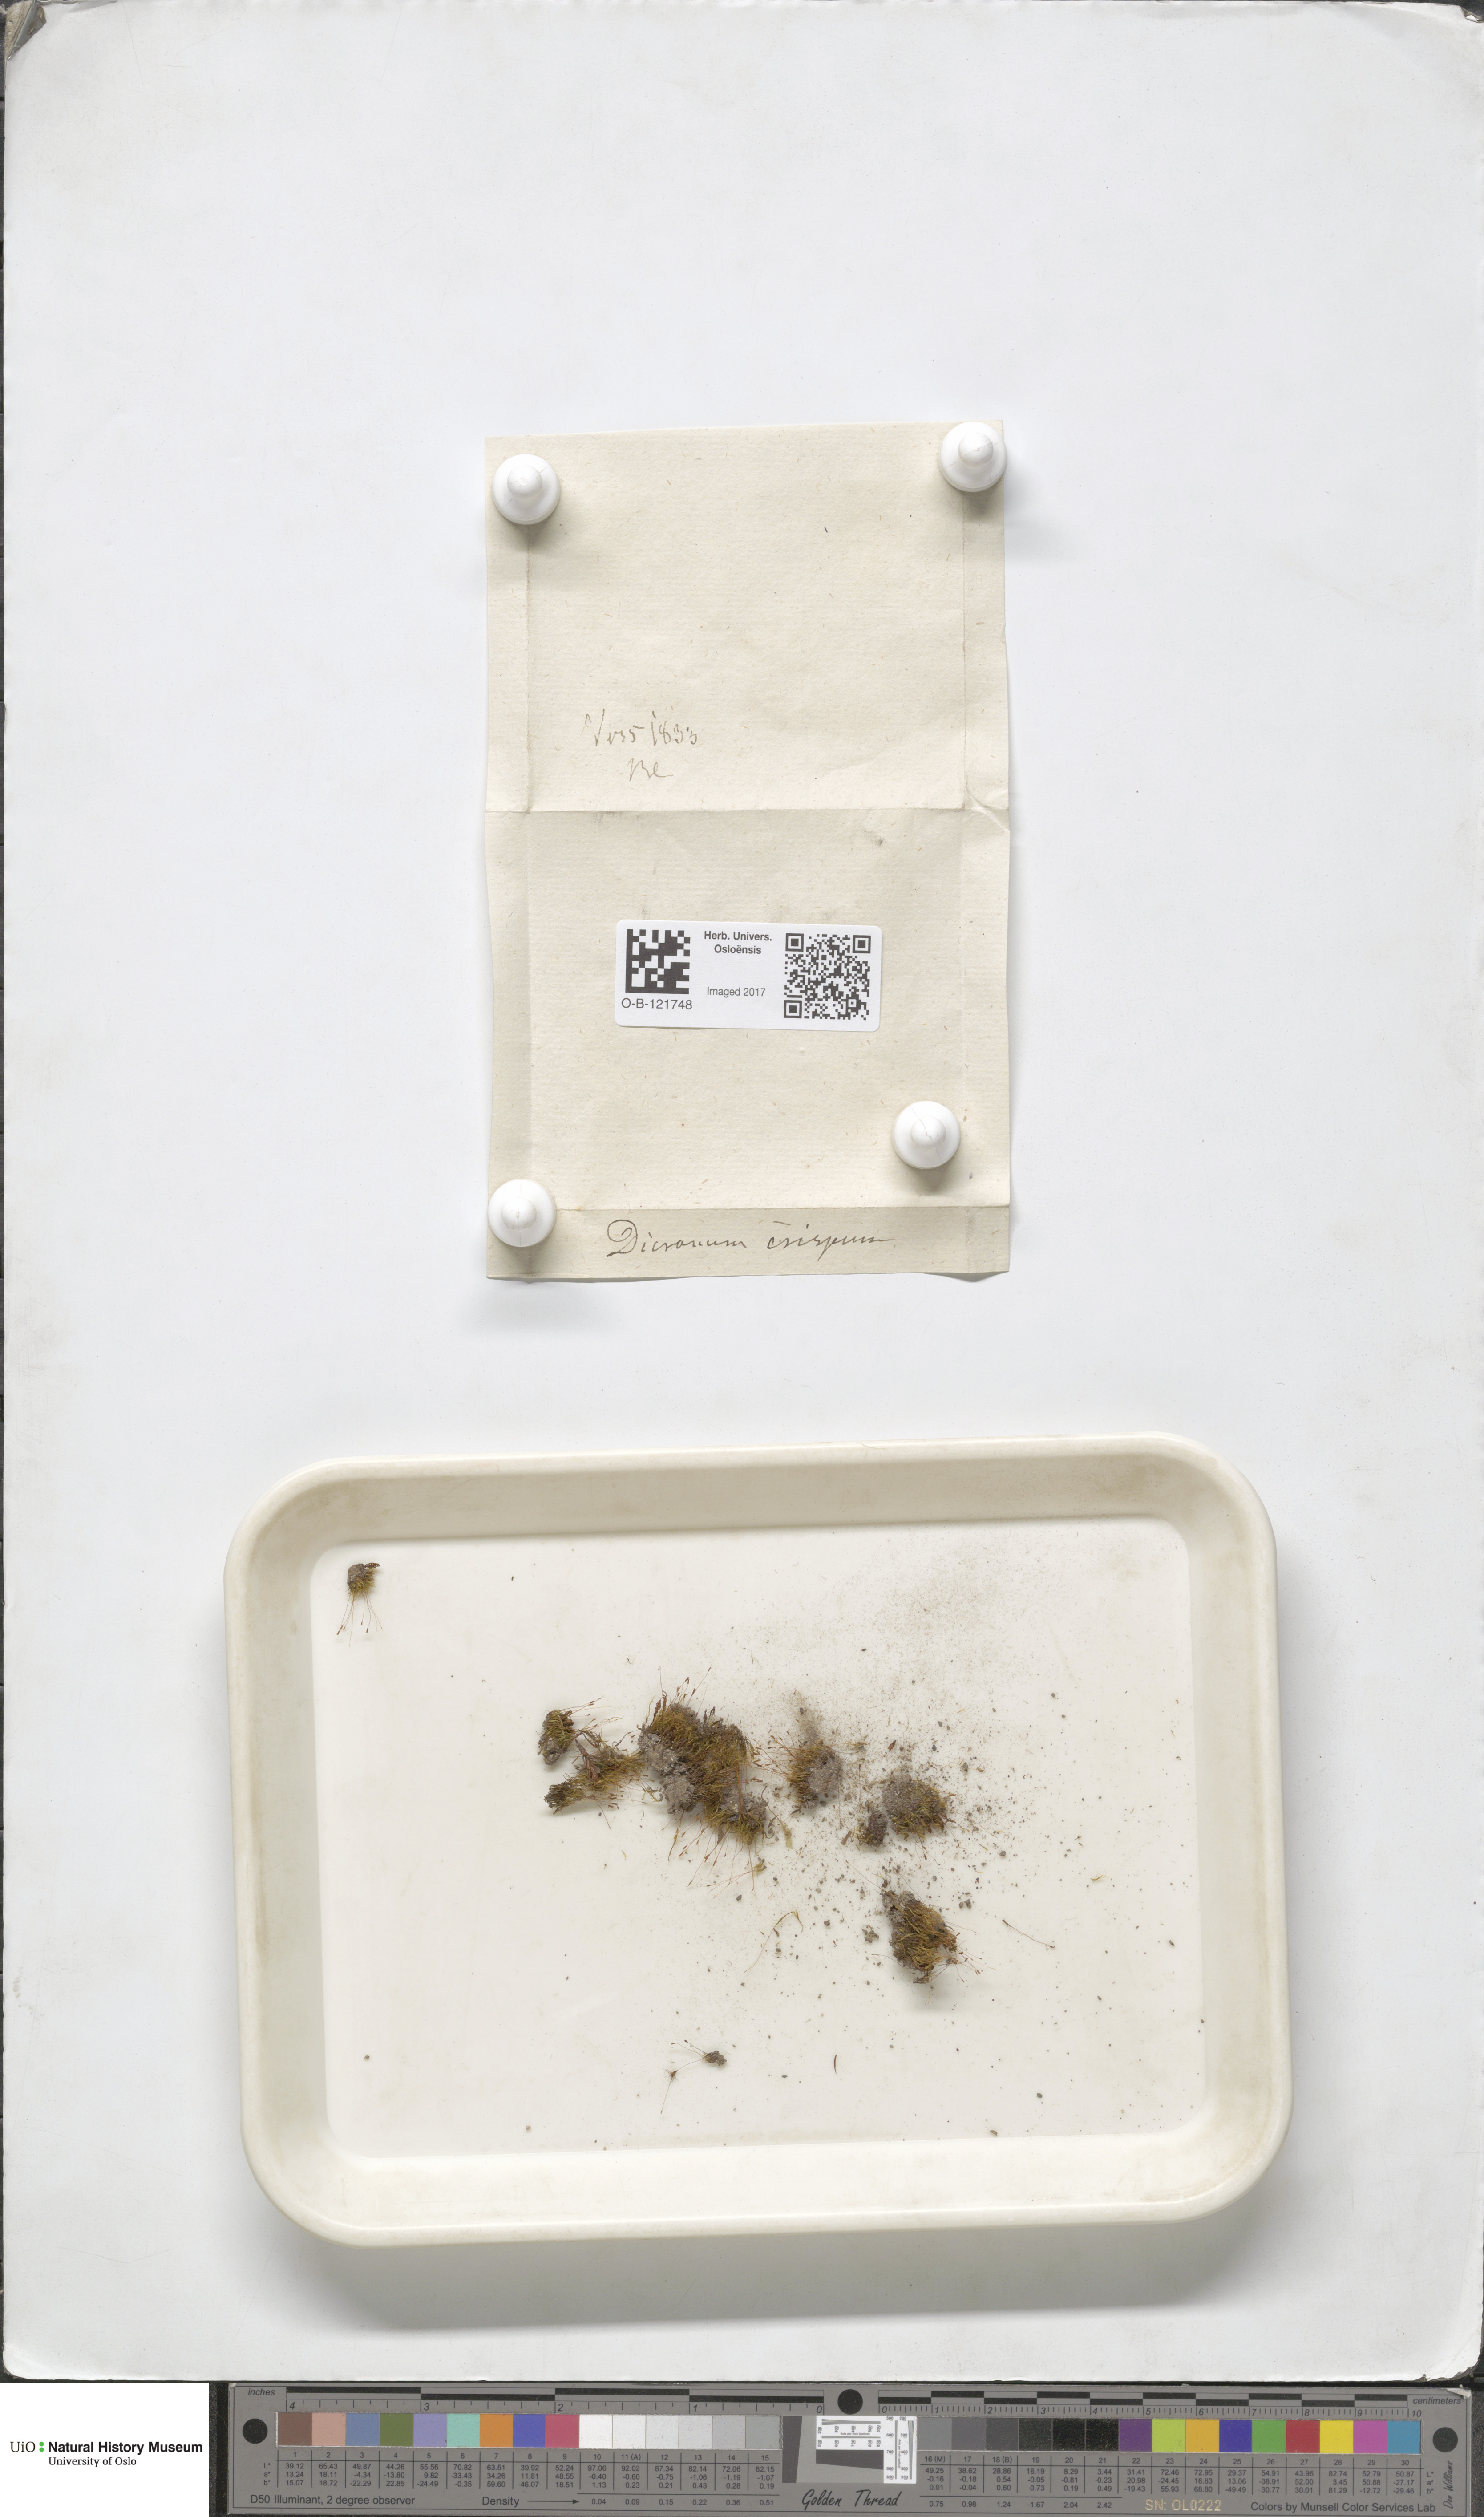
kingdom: Plantae
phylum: Bryophyta
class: Bryopsida
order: Dicranales
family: Dicranellaceae
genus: Dicranella
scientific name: Dicranella crispa
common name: Curl-leaved forklet moss
